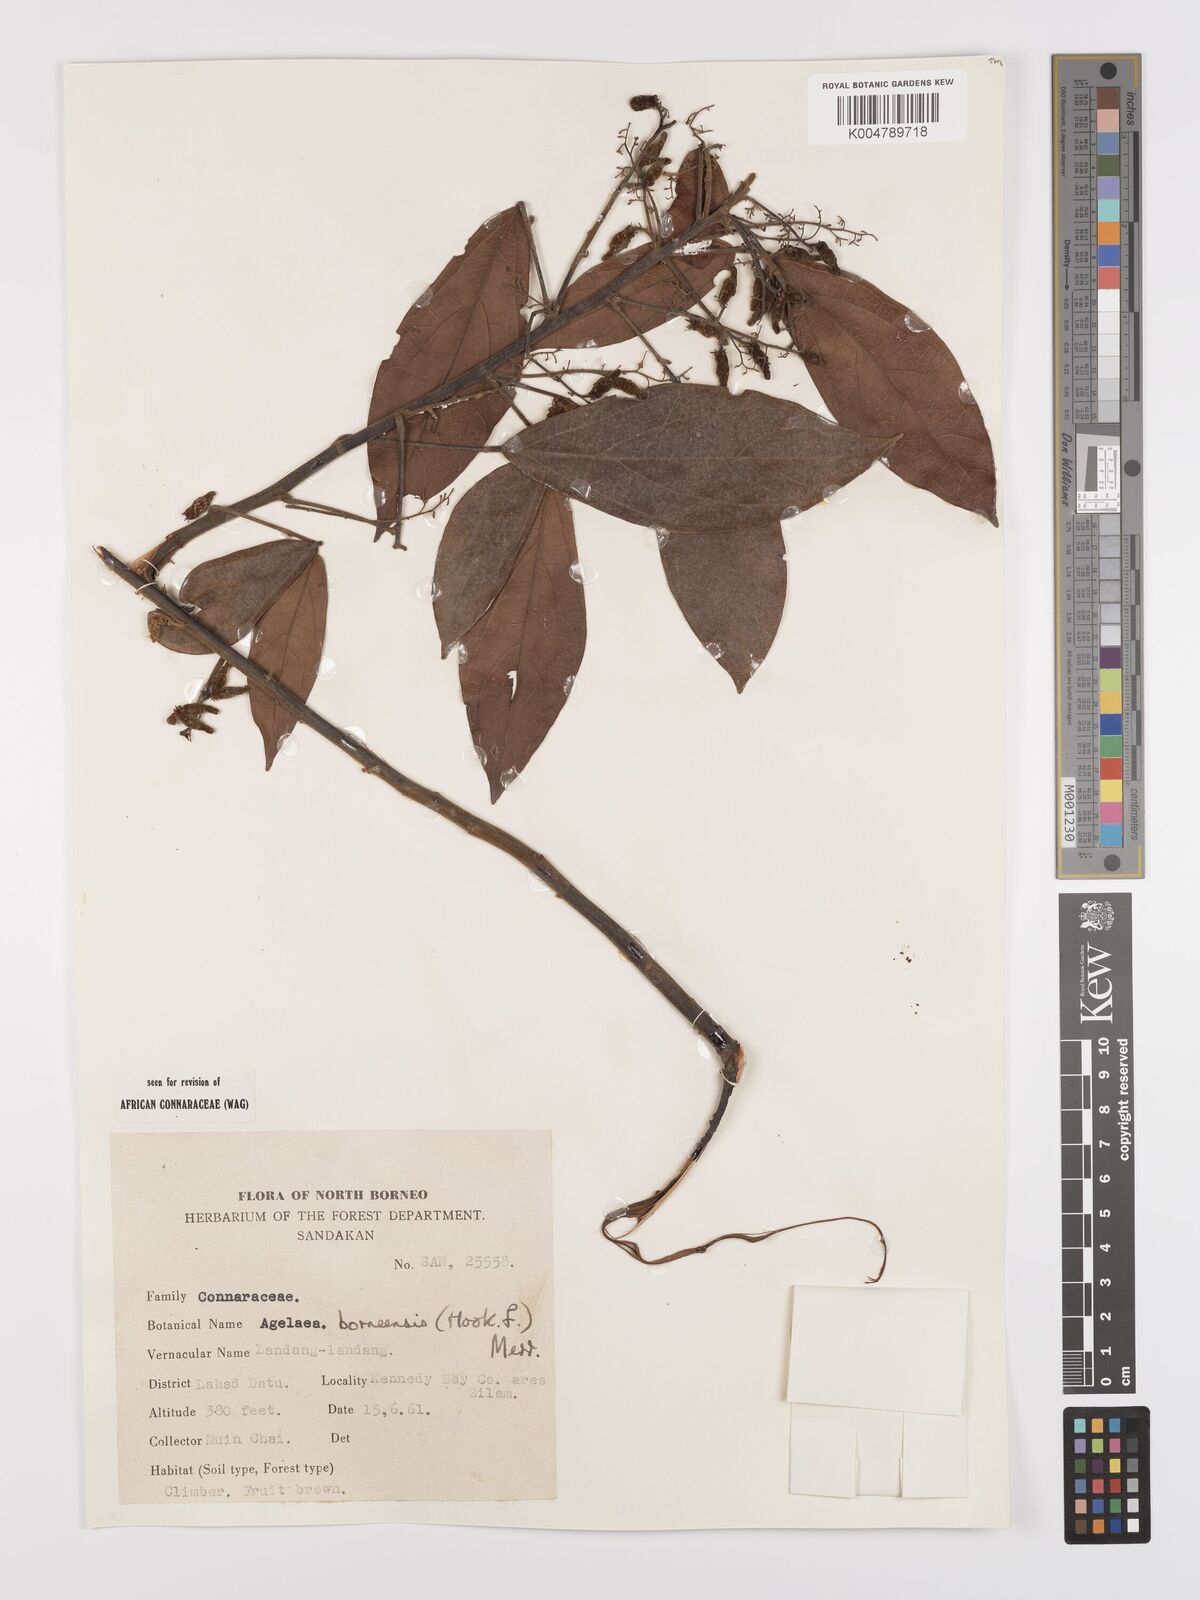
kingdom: Plantae
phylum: Tracheophyta
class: Magnoliopsida
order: Oxalidales
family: Connaraceae
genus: Agelaea
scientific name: Agelaea borneensis
